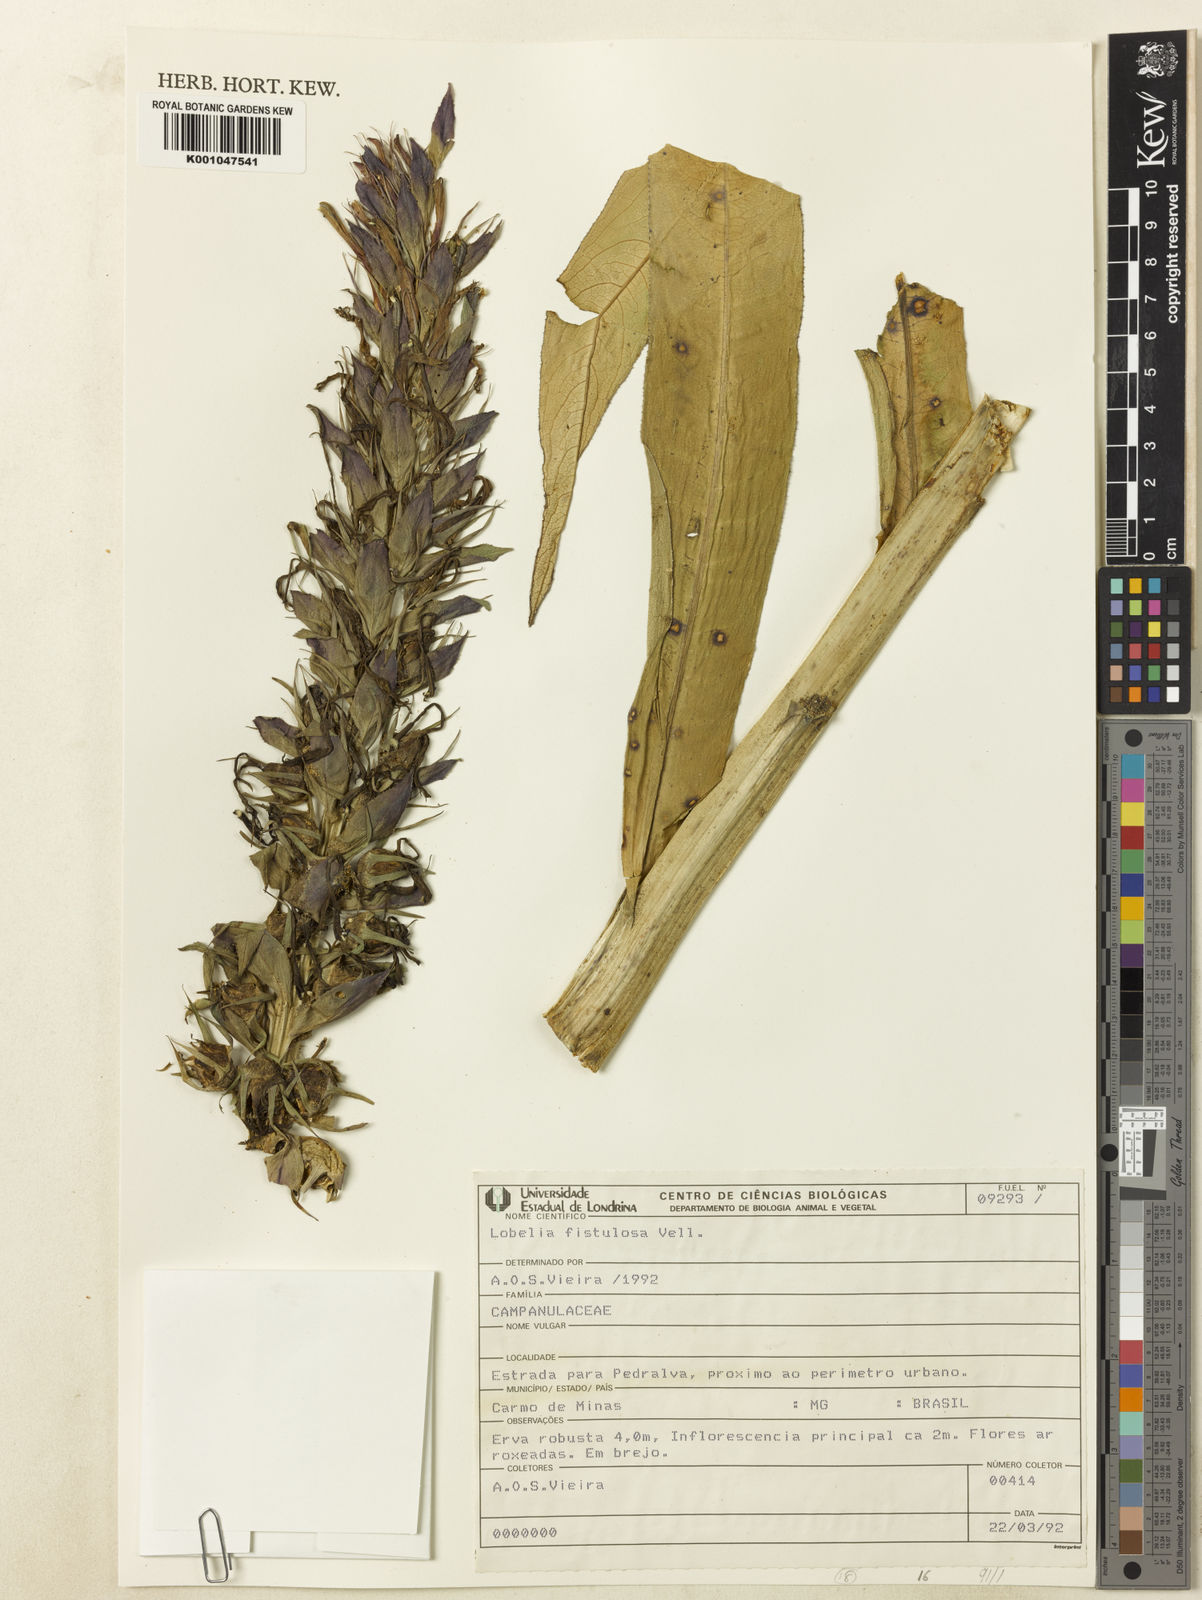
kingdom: Plantae
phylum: Tracheophyta
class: Magnoliopsida
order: Asterales
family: Campanulaceae
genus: Lobelia
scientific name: Lobelia fistulosa
